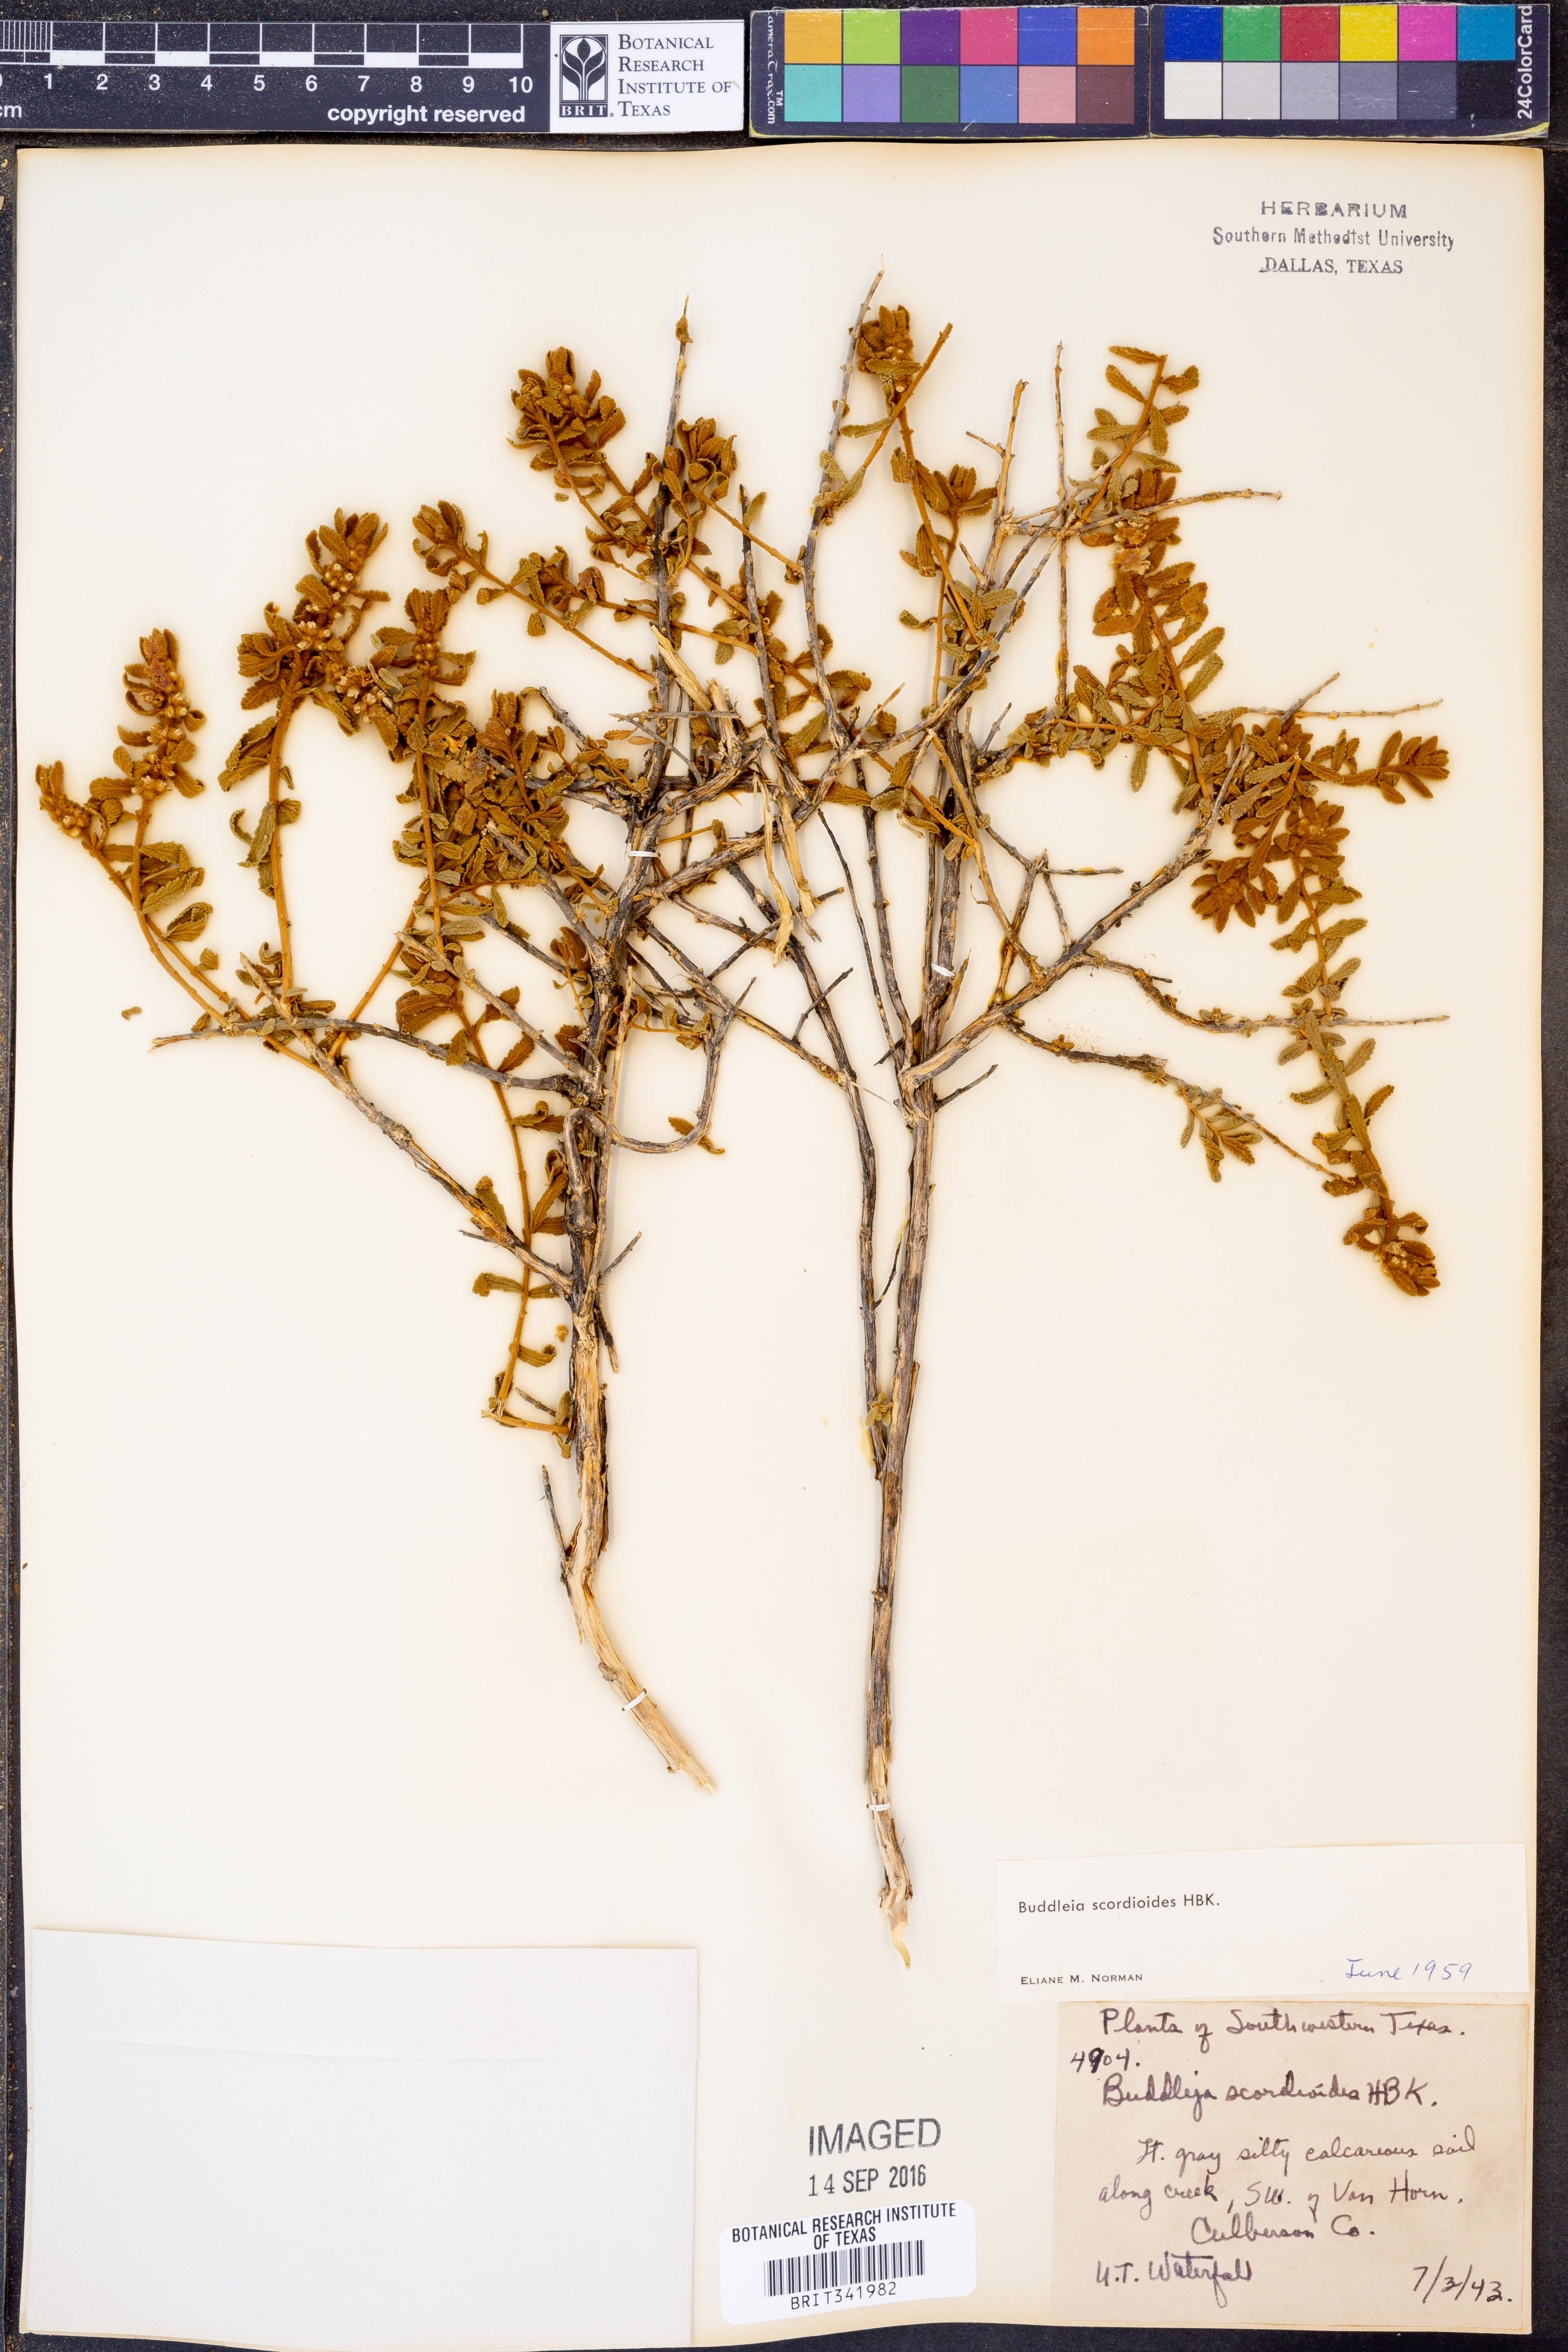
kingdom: Plantae
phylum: Tracheophyta
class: Magnoliopsida
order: Lamiales
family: Scrophulariaceae
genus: Buddleja
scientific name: Buddleja scordioides
